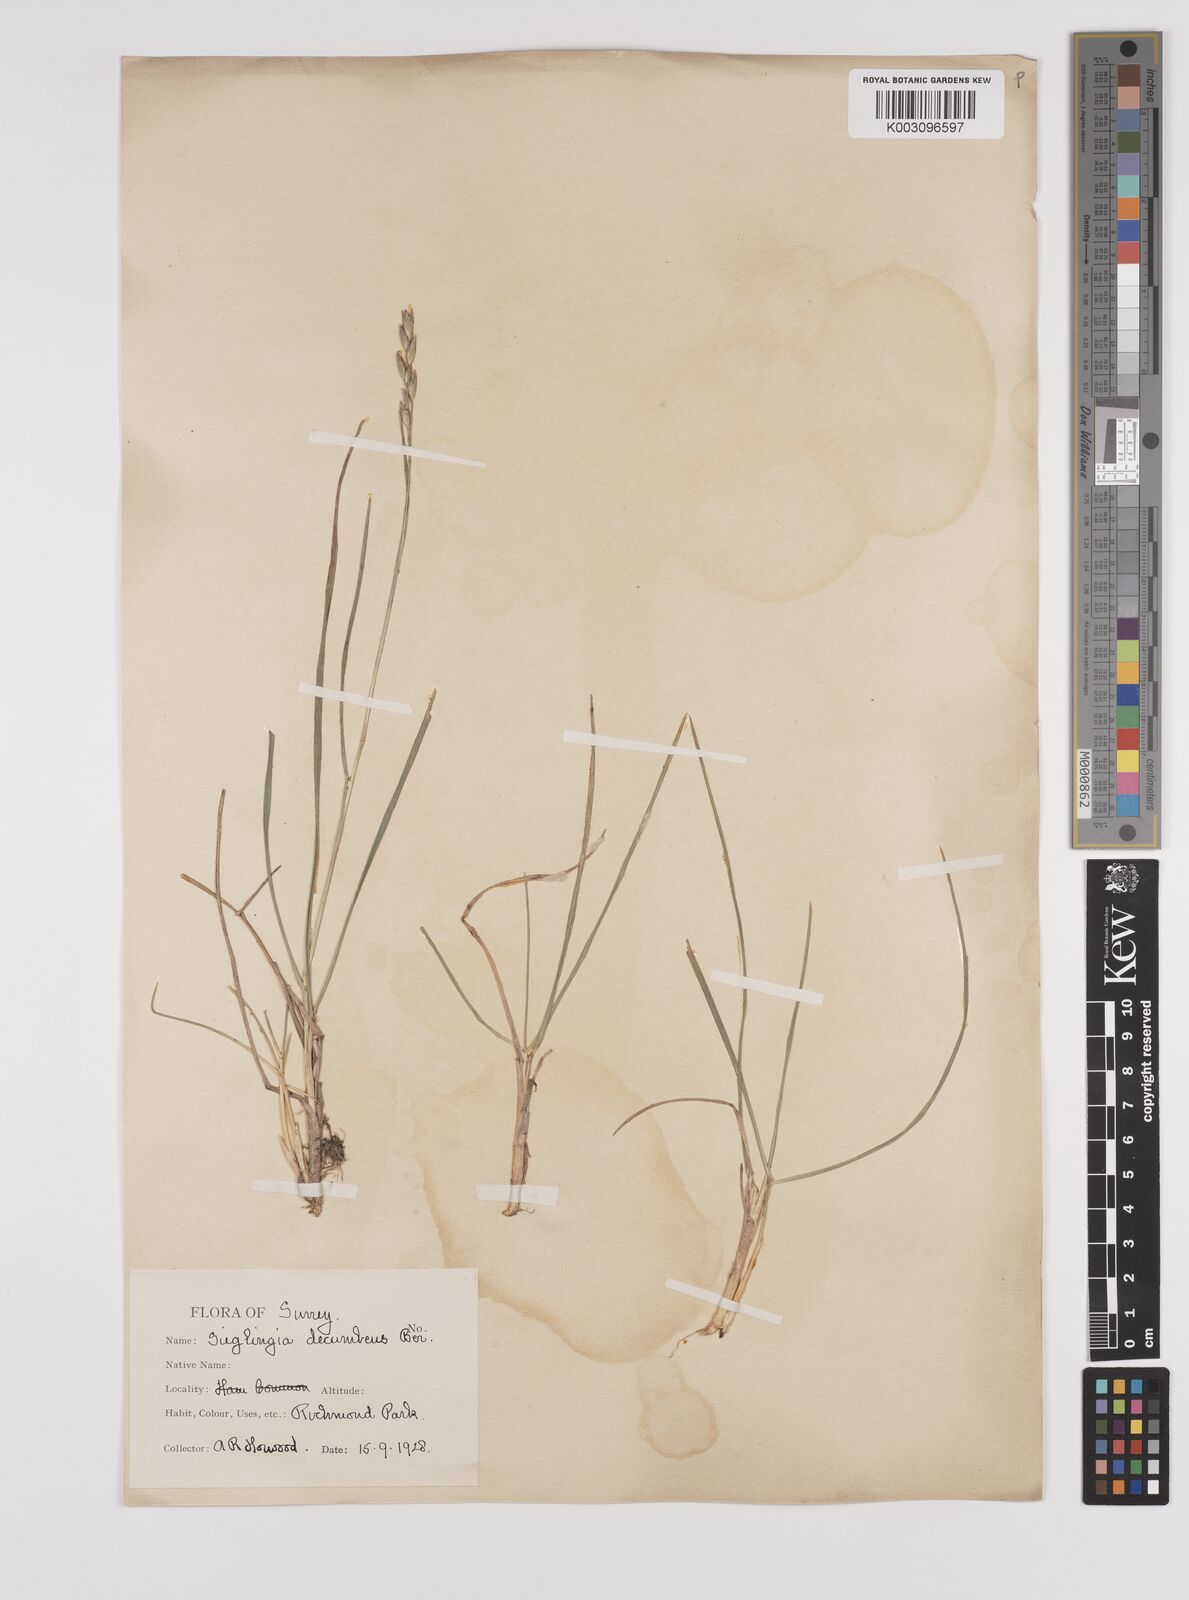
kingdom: Plantae
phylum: Tracheophyta
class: Liliopsida
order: Poales
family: Poaceae
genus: Danthonia
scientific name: Danthonia decumbens
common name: Common heathgrass
